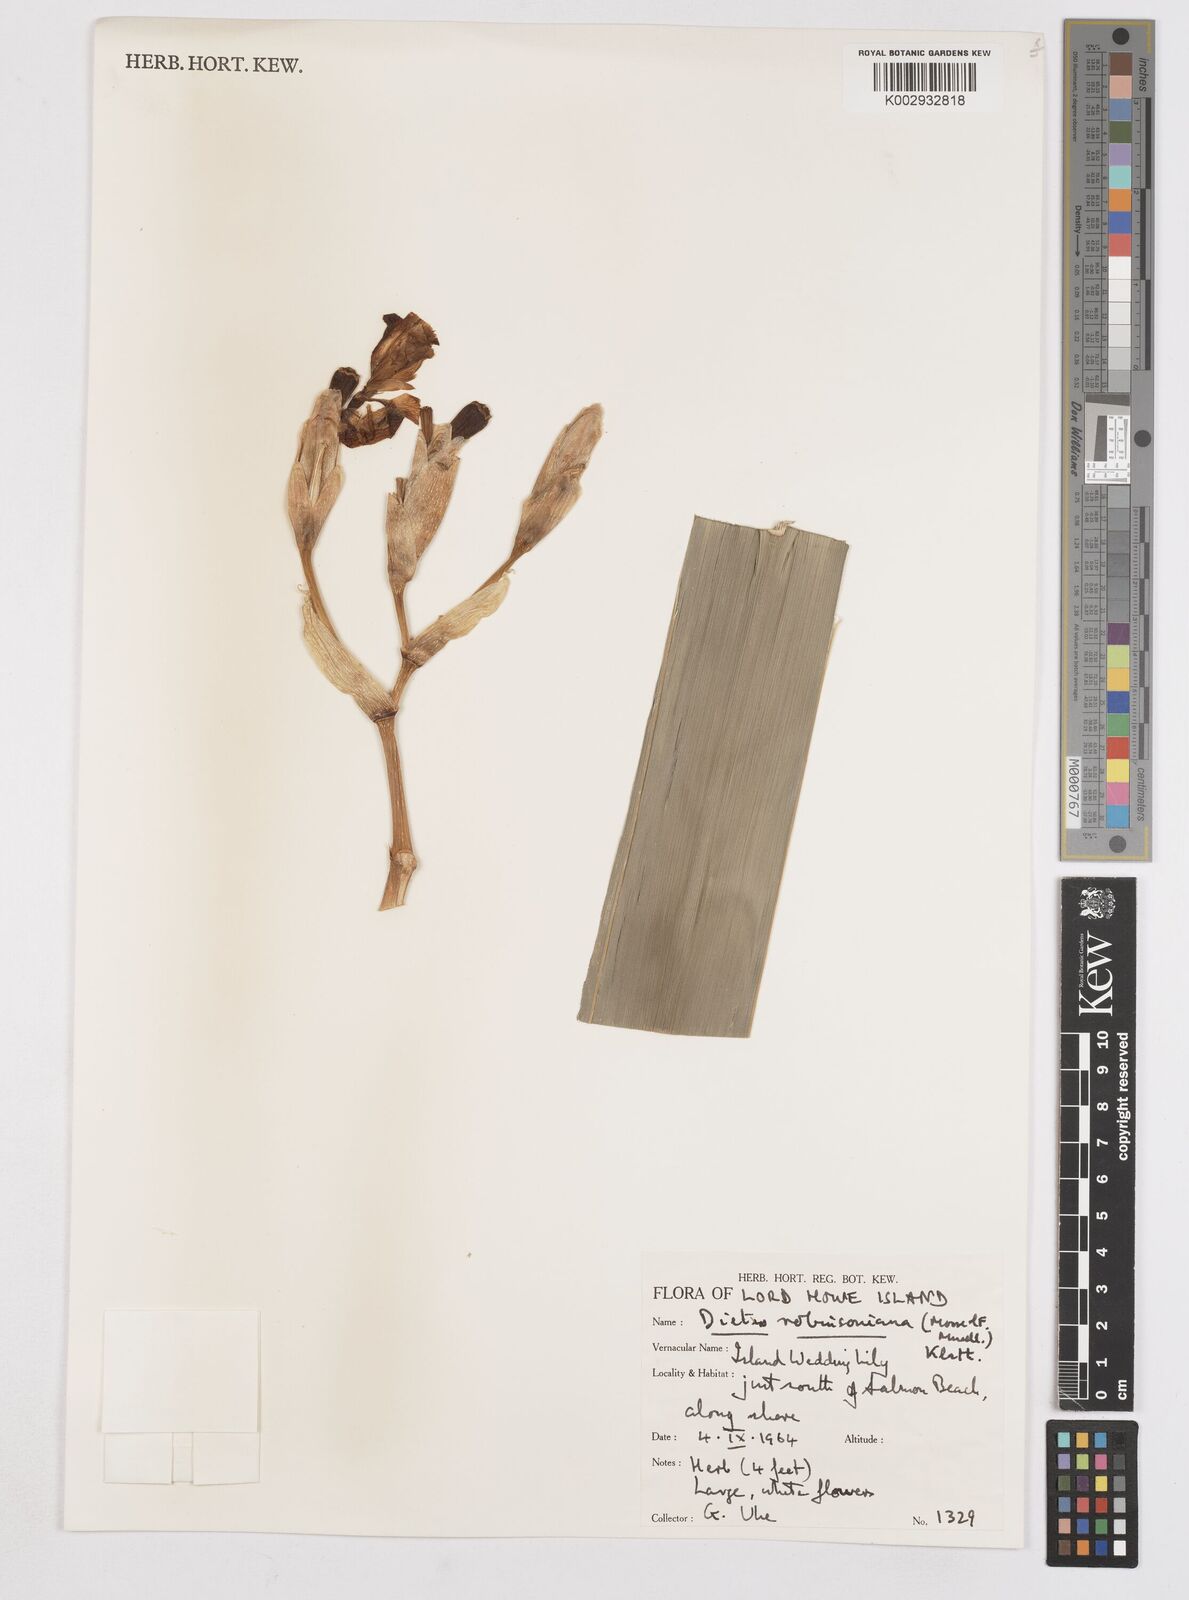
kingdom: Plantae
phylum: Tracheophyta
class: Liliopsida
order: Asparagales
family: Iridaceae
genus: Dietes
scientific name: Dietes robinsoniana
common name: Wedding-lily
